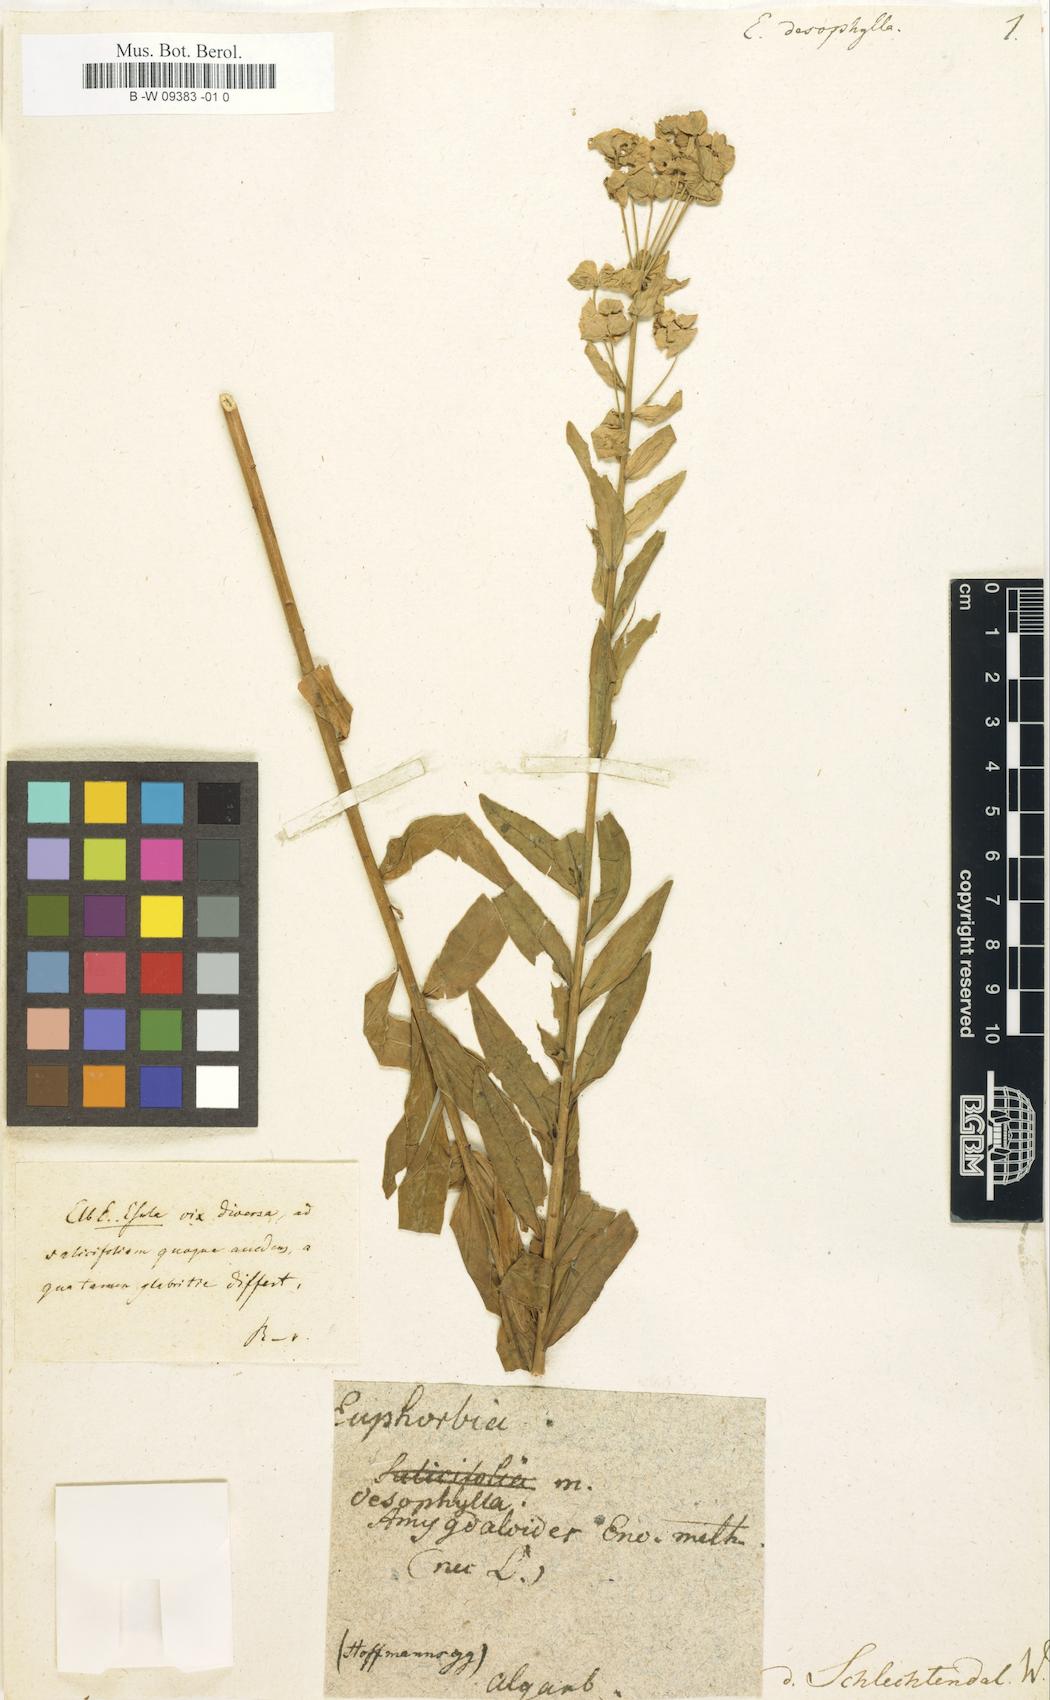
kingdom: Plantae
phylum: Tracheophyta
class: Magnoliopsida
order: Malpighiales
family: Euphorbiaceae
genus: Euphorbia
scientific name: Euphorbia
